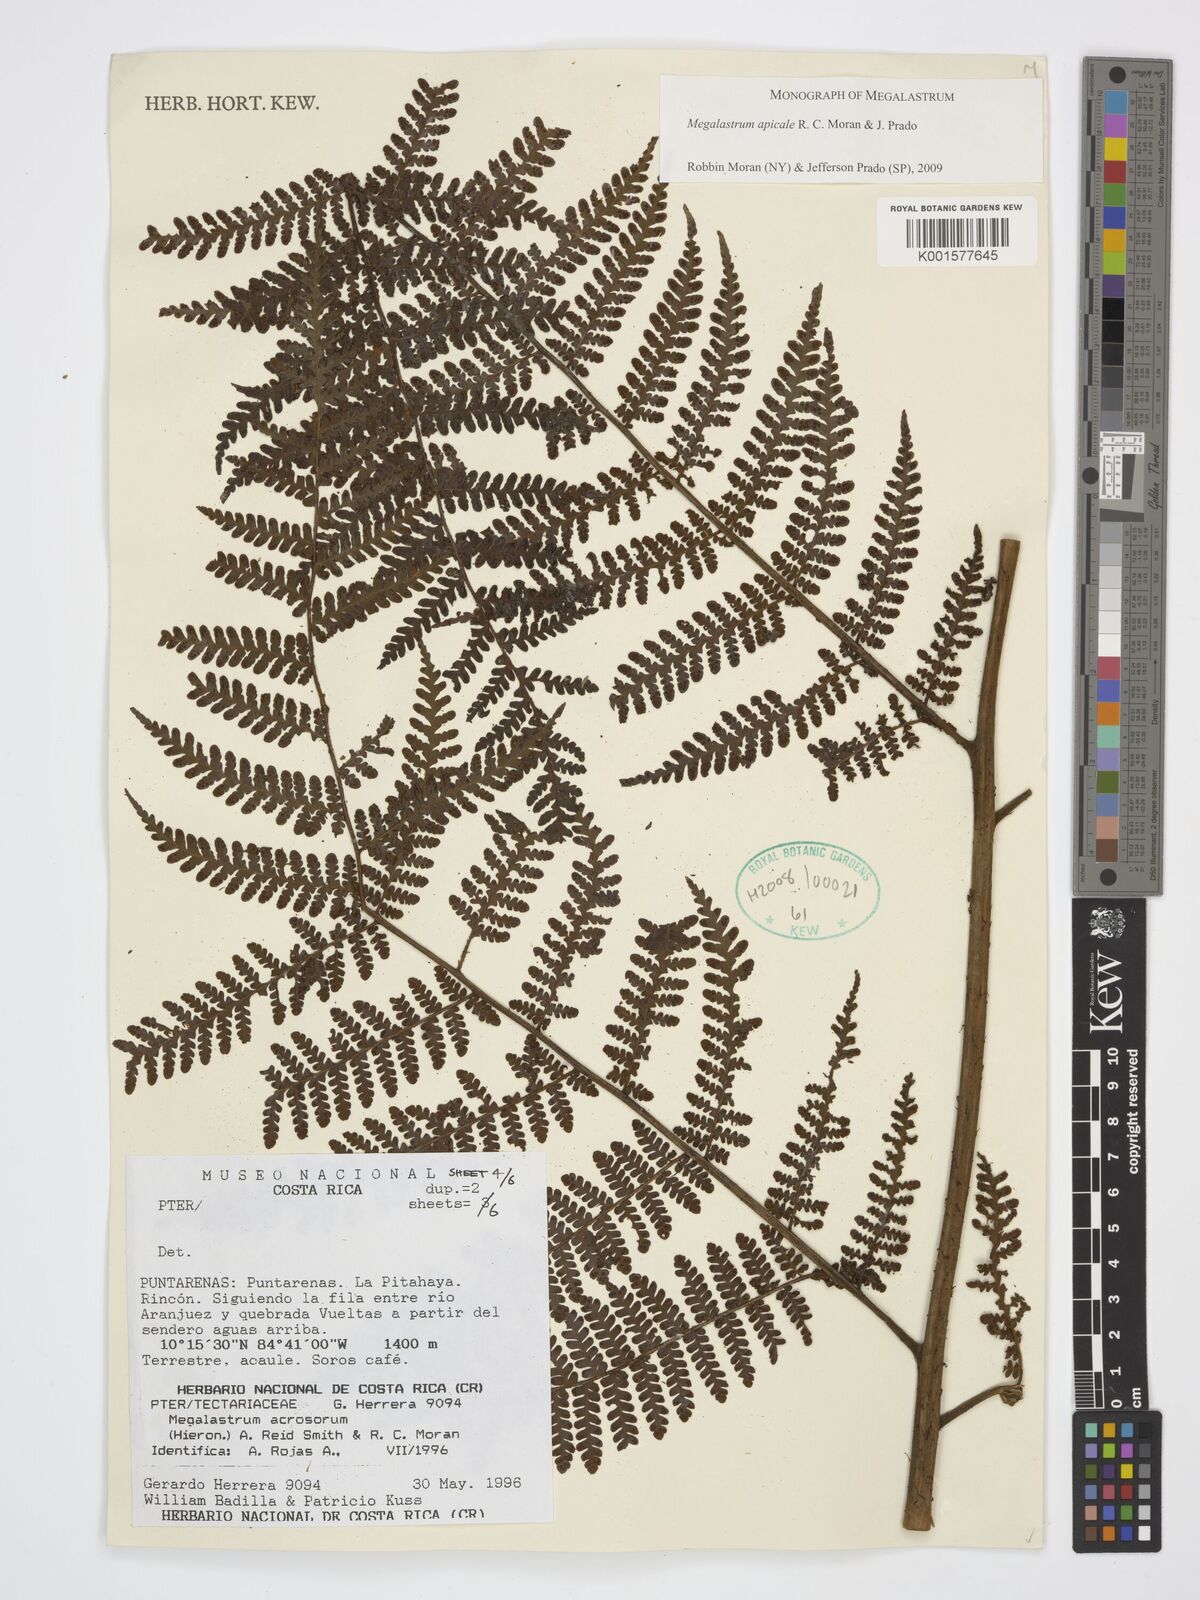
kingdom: Plantae
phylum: Tracheophyta
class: Polypodiopsida
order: Polypodiales
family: Dryopteridaceae
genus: Megalastrum
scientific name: Megalastrum apicale
